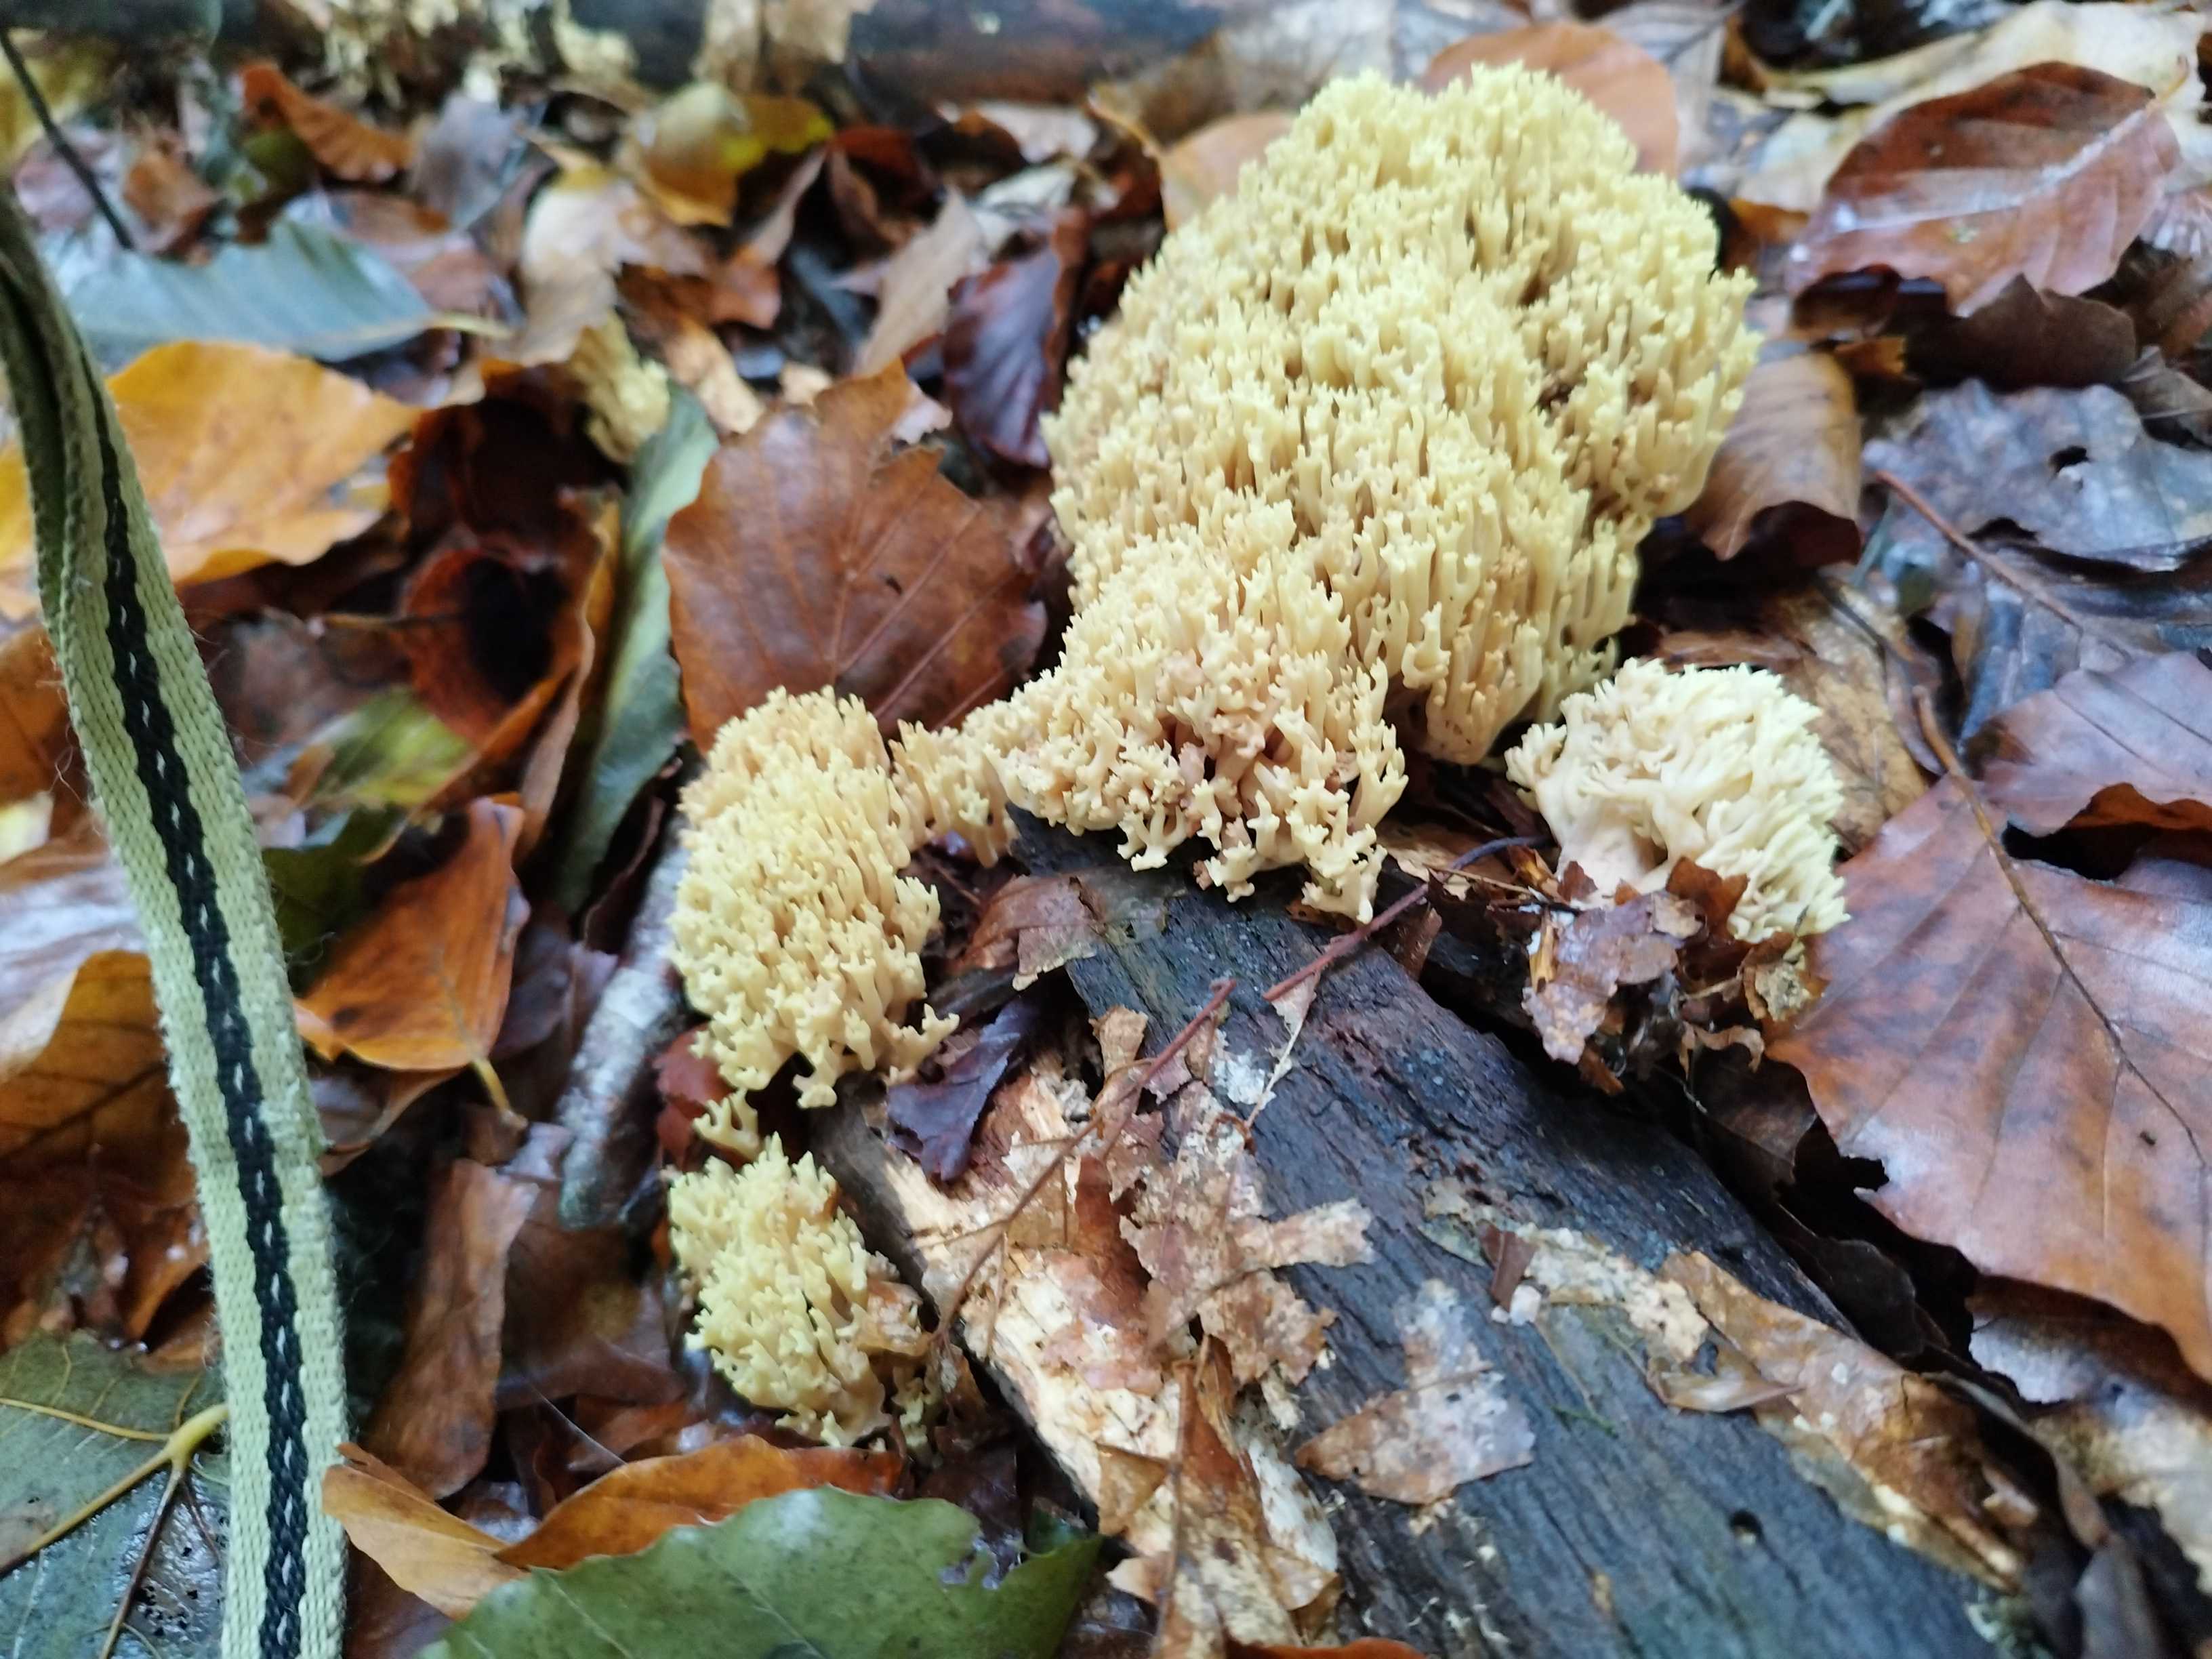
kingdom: Fungi
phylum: Basidiomycota
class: Agaricomycetes
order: Gomphales
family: Gomphaceae
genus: Ramaria
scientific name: Ramaria stricta
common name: rank koralsvamp
